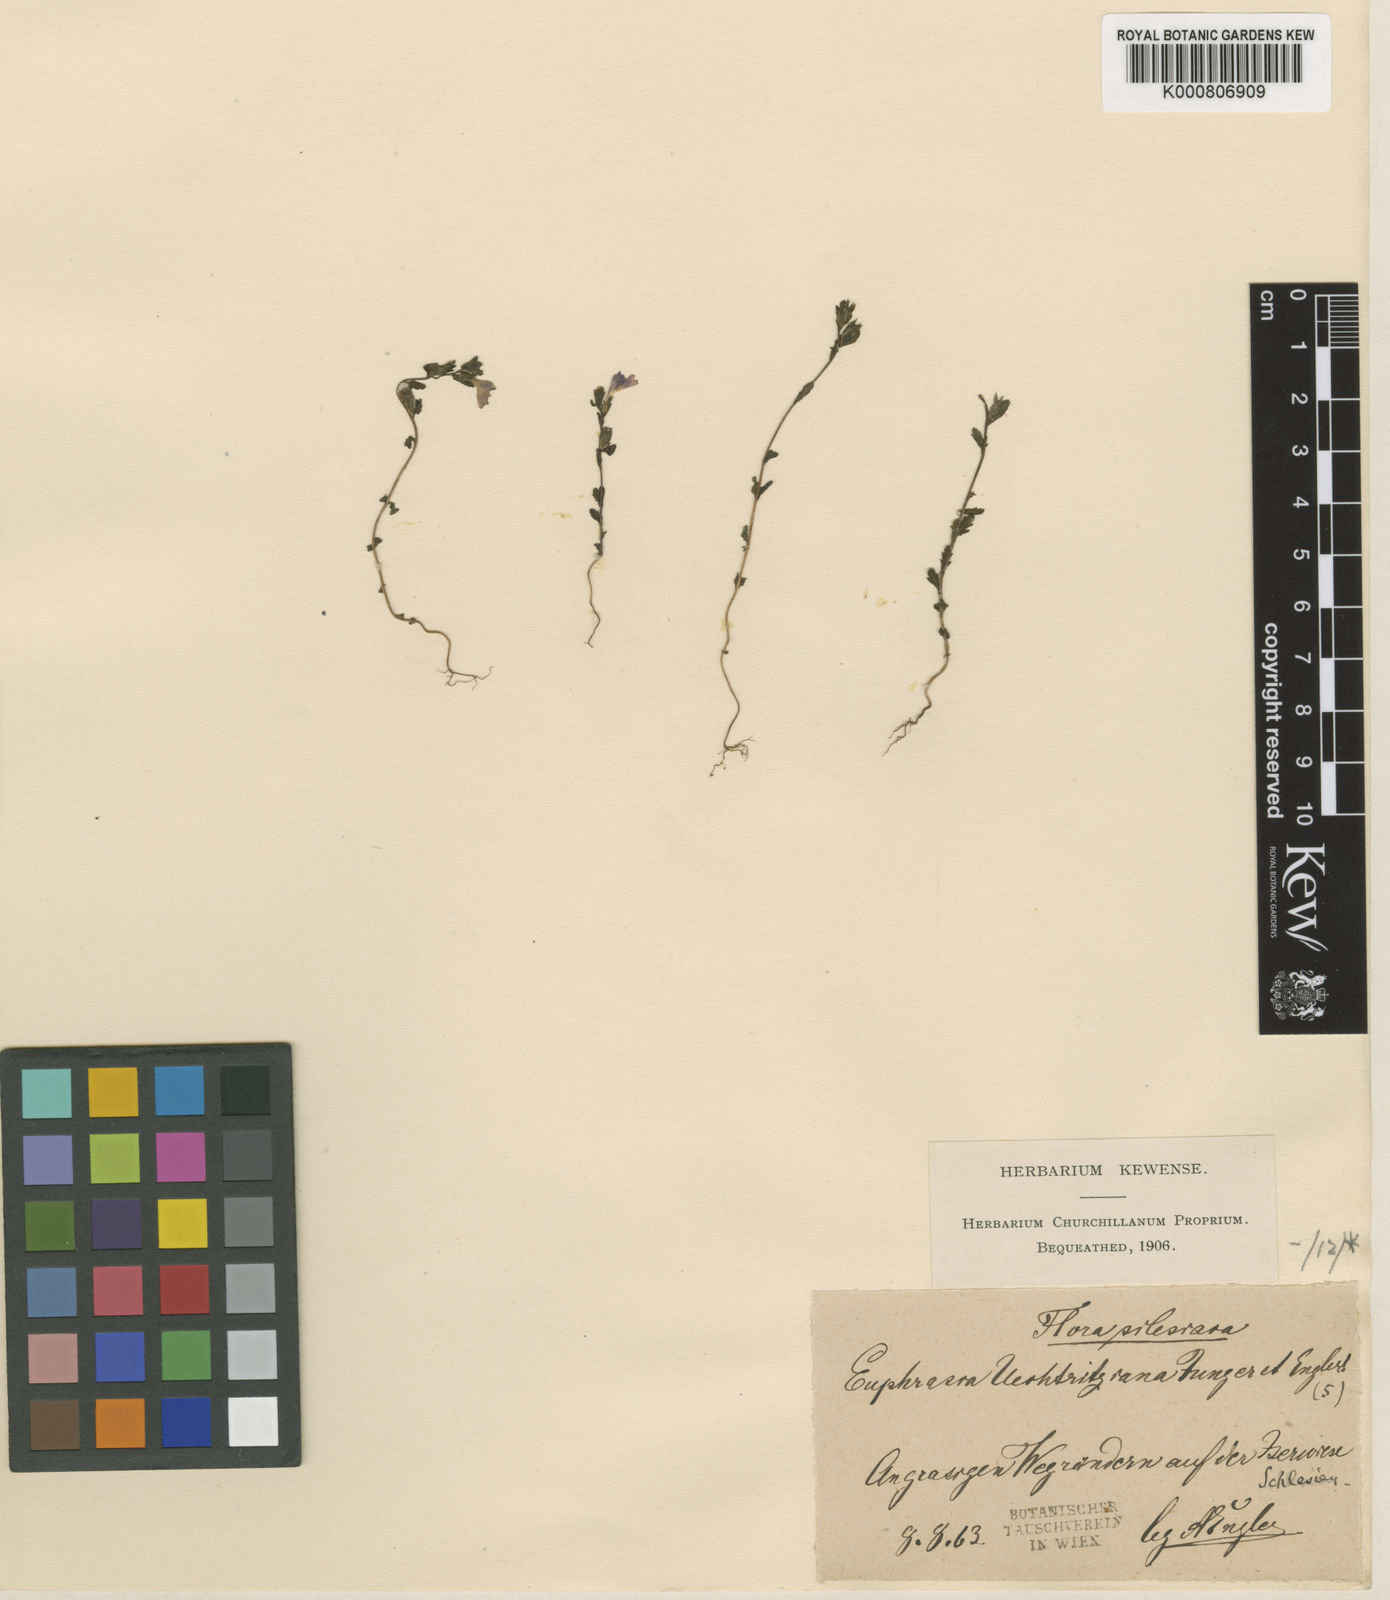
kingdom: Plantae
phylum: Tracheophyta
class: Magnoliopsida
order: Lamiales
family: Orobanchaceae
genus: Euphrasia
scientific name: Euphrasia nemorosa
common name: Common eyebright
